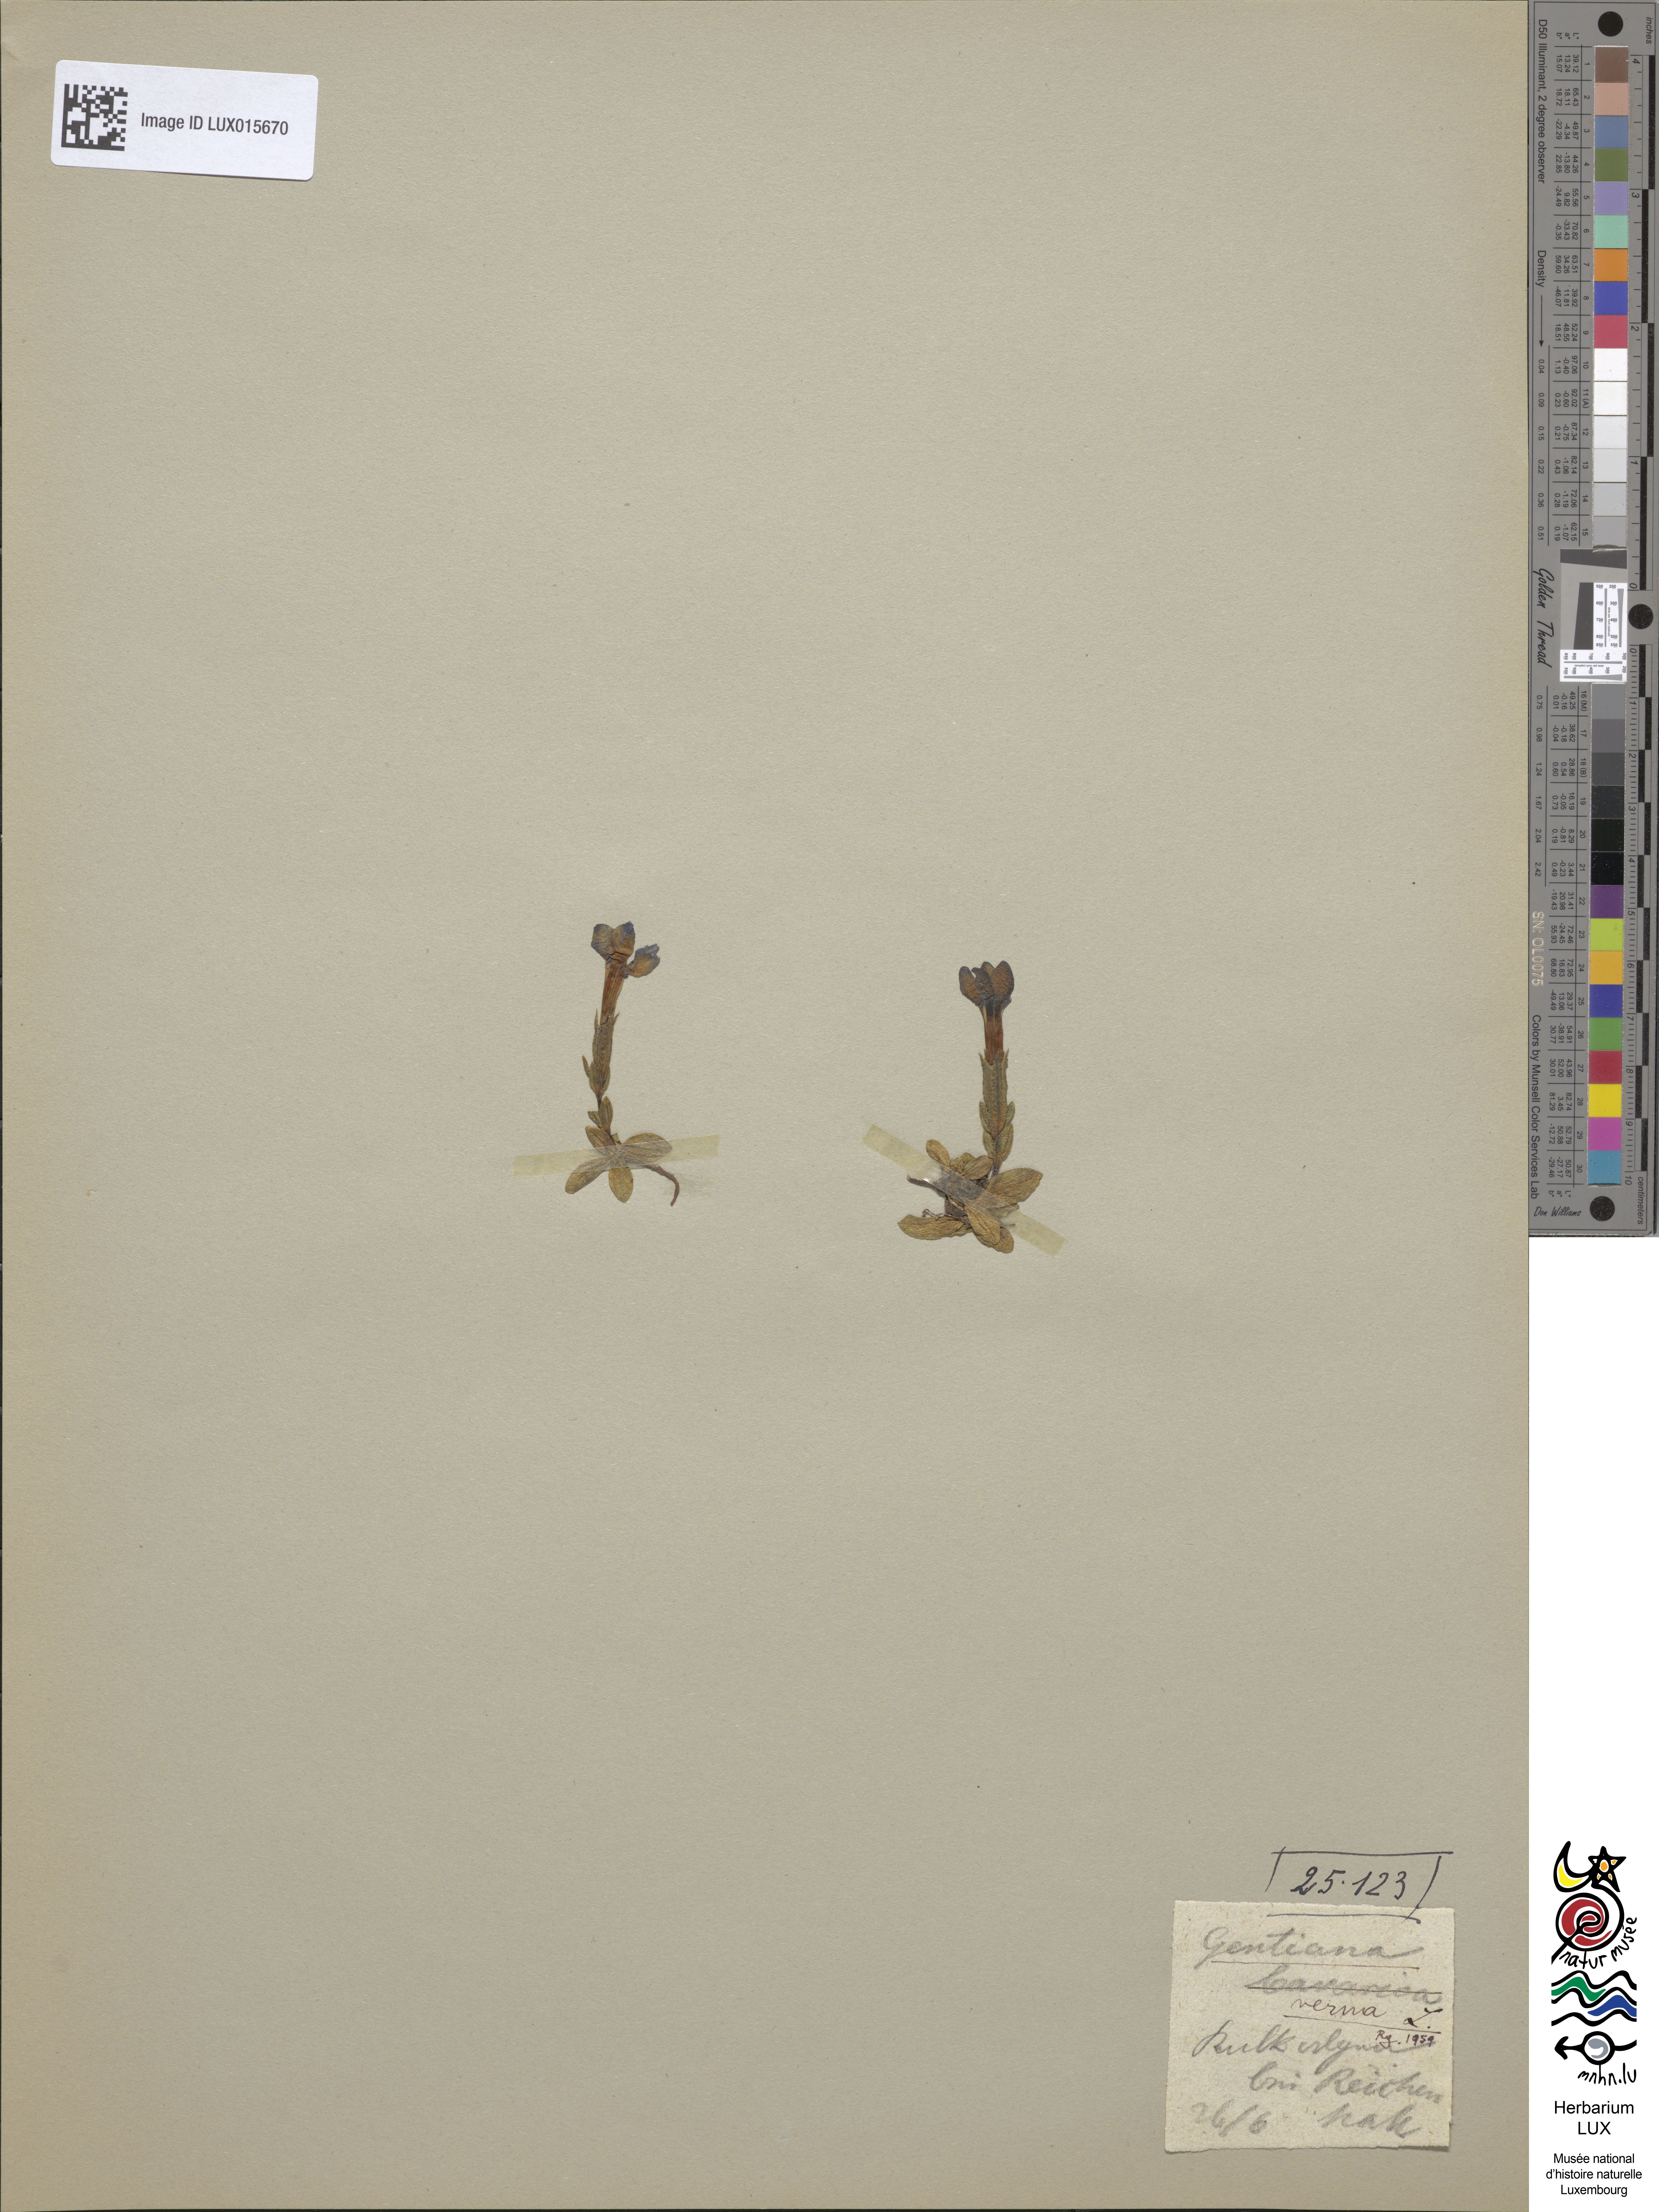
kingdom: Plantae
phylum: Tracheophyta
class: Magnoliopsida
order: Gentianales
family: Gentianaceae
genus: Gentiana
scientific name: Gentiana verna
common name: Spring gentian
